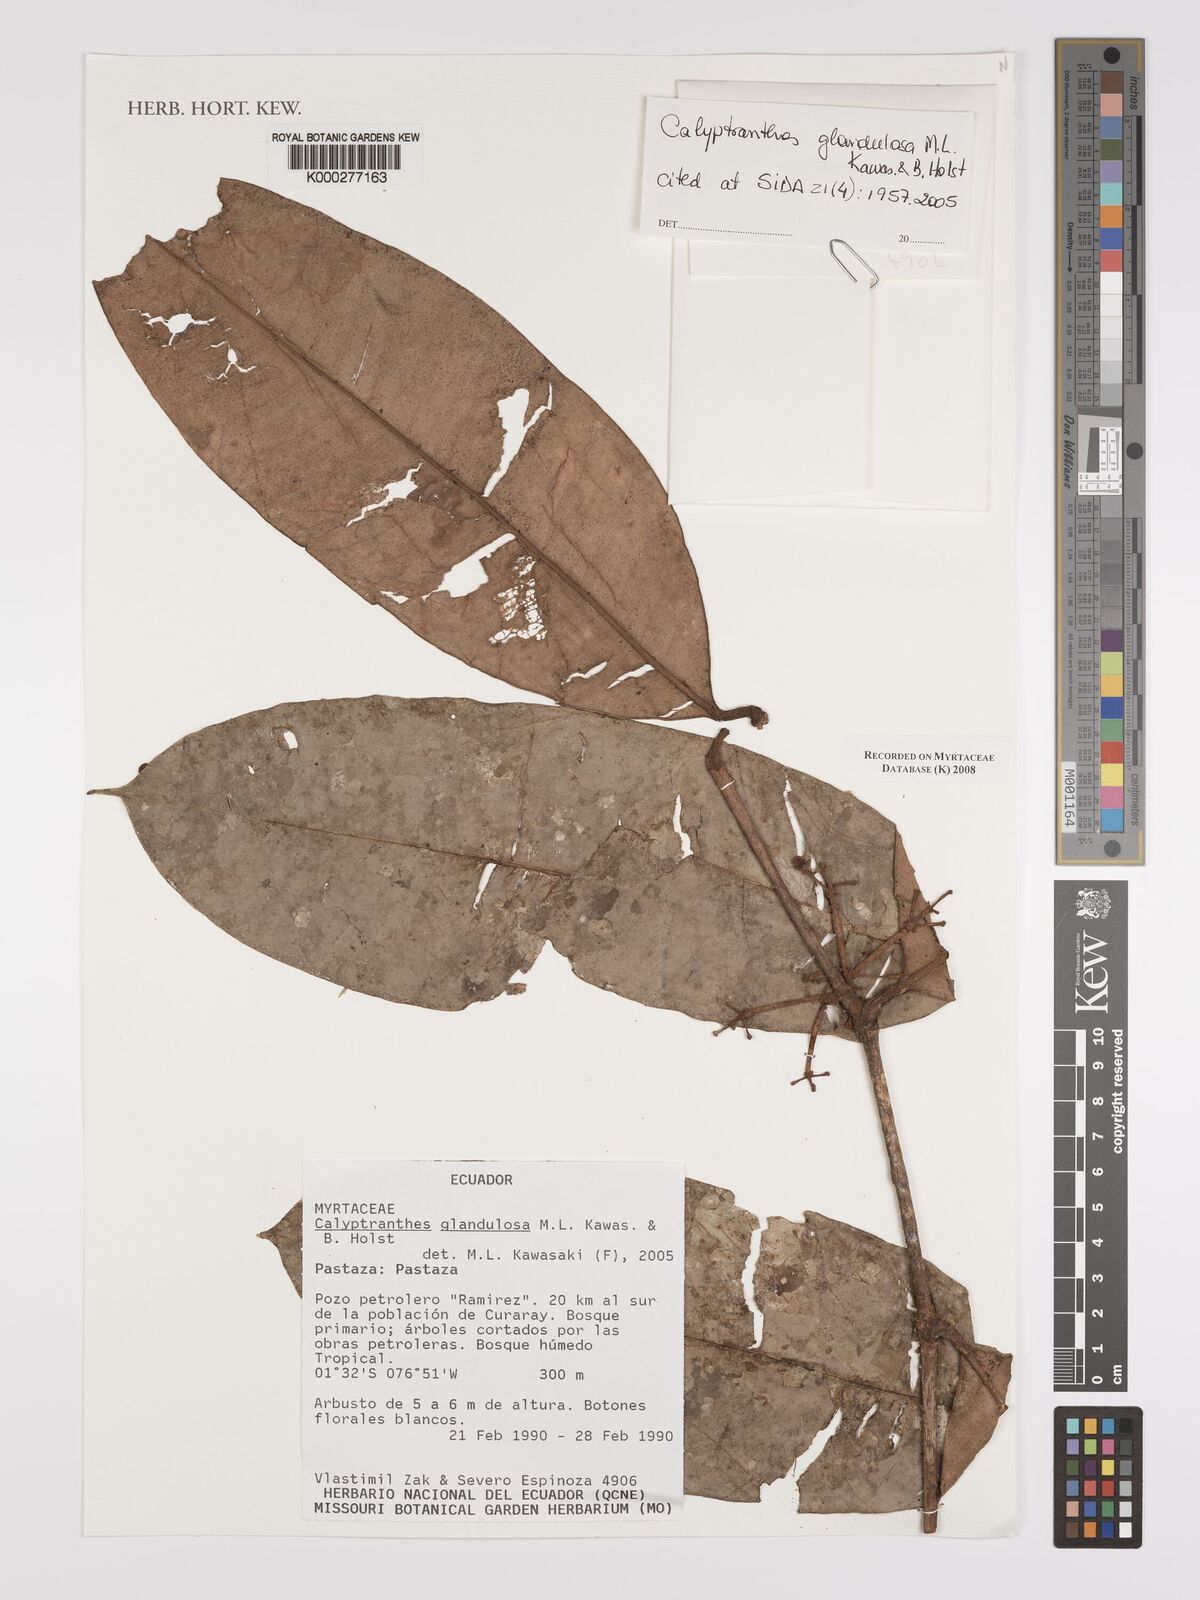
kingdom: Plantae
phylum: Tracheophyta
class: Magnoliopsida
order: Myrtales
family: Myrtaceae
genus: Myrcia
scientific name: Myrcia adenophylla
